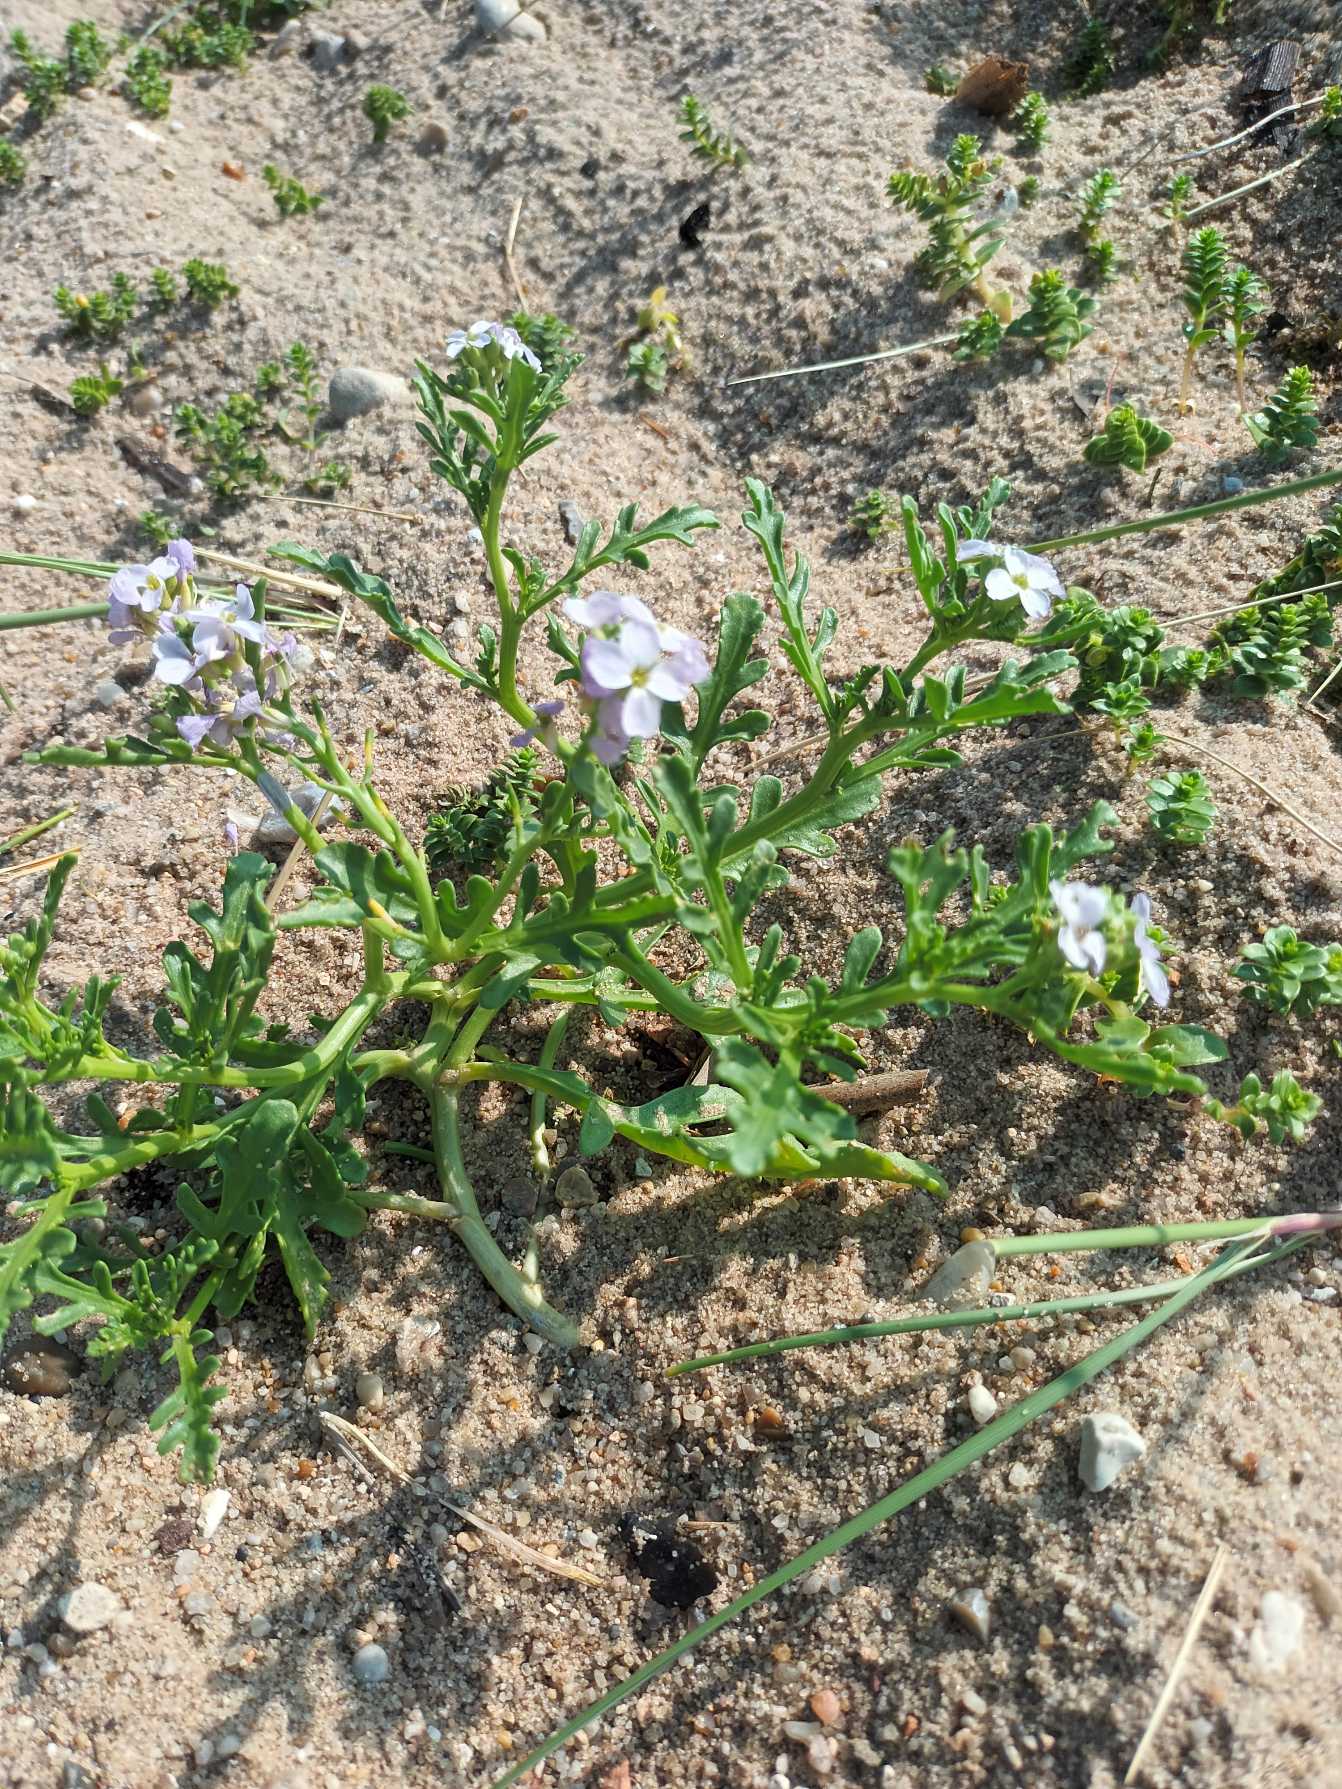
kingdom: Plantae
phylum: Tracheophyta
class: Magnoliopsida
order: Brassicales
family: Brassicaceae
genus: Cakile
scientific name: Cakile maritima
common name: Nordsø-strandsennep
